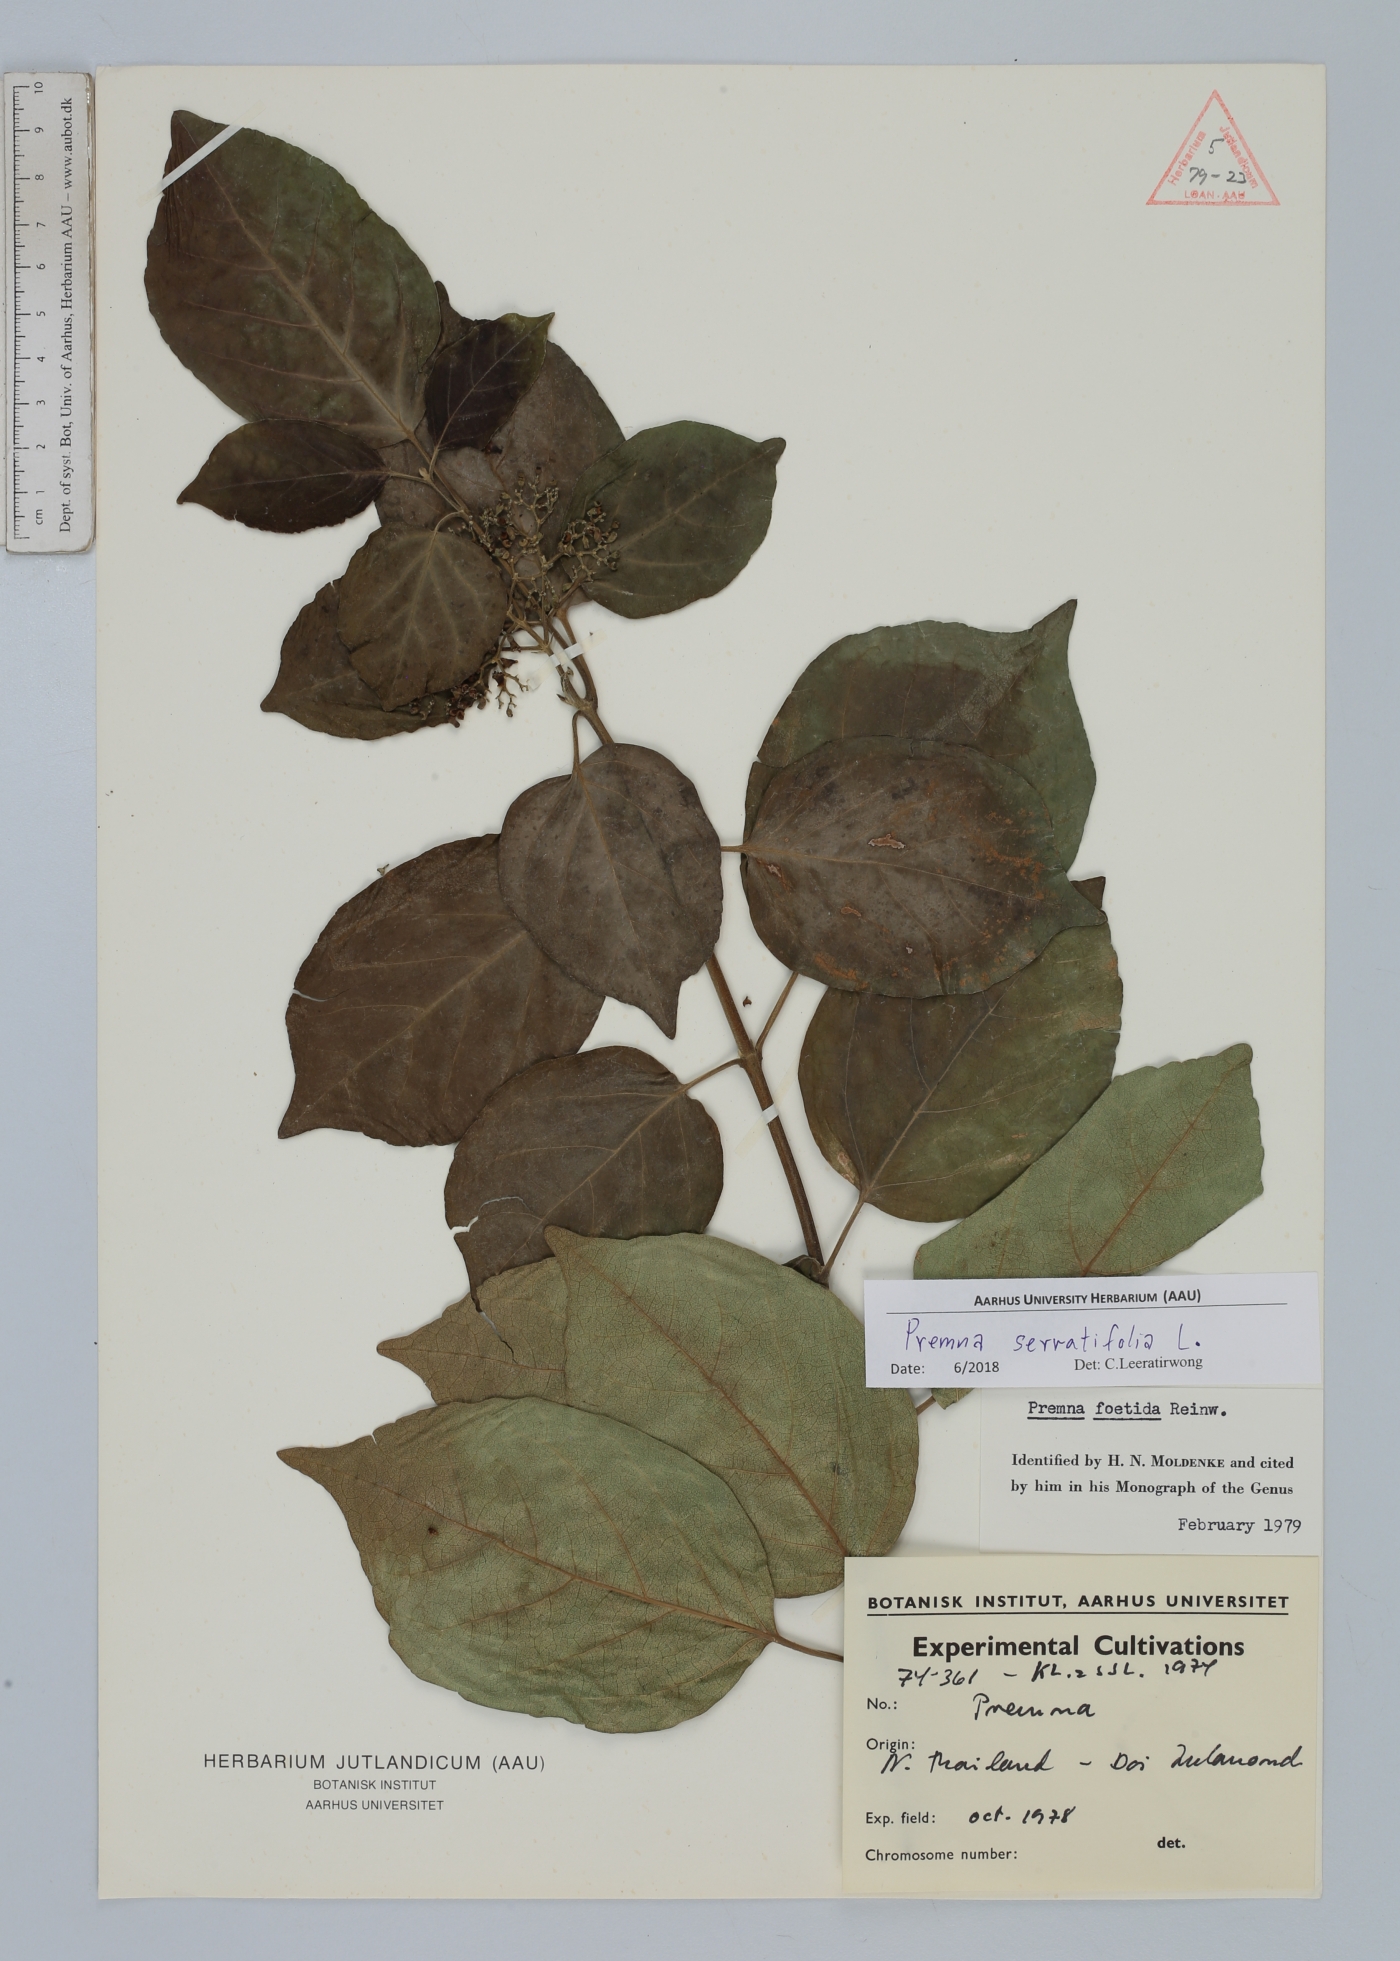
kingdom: Plantae
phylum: Tracheophyta
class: Magnoliopsida
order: Lamiales
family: Lamiaceae
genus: Premna
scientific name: Premna serratifolia
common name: Bastard guelder
